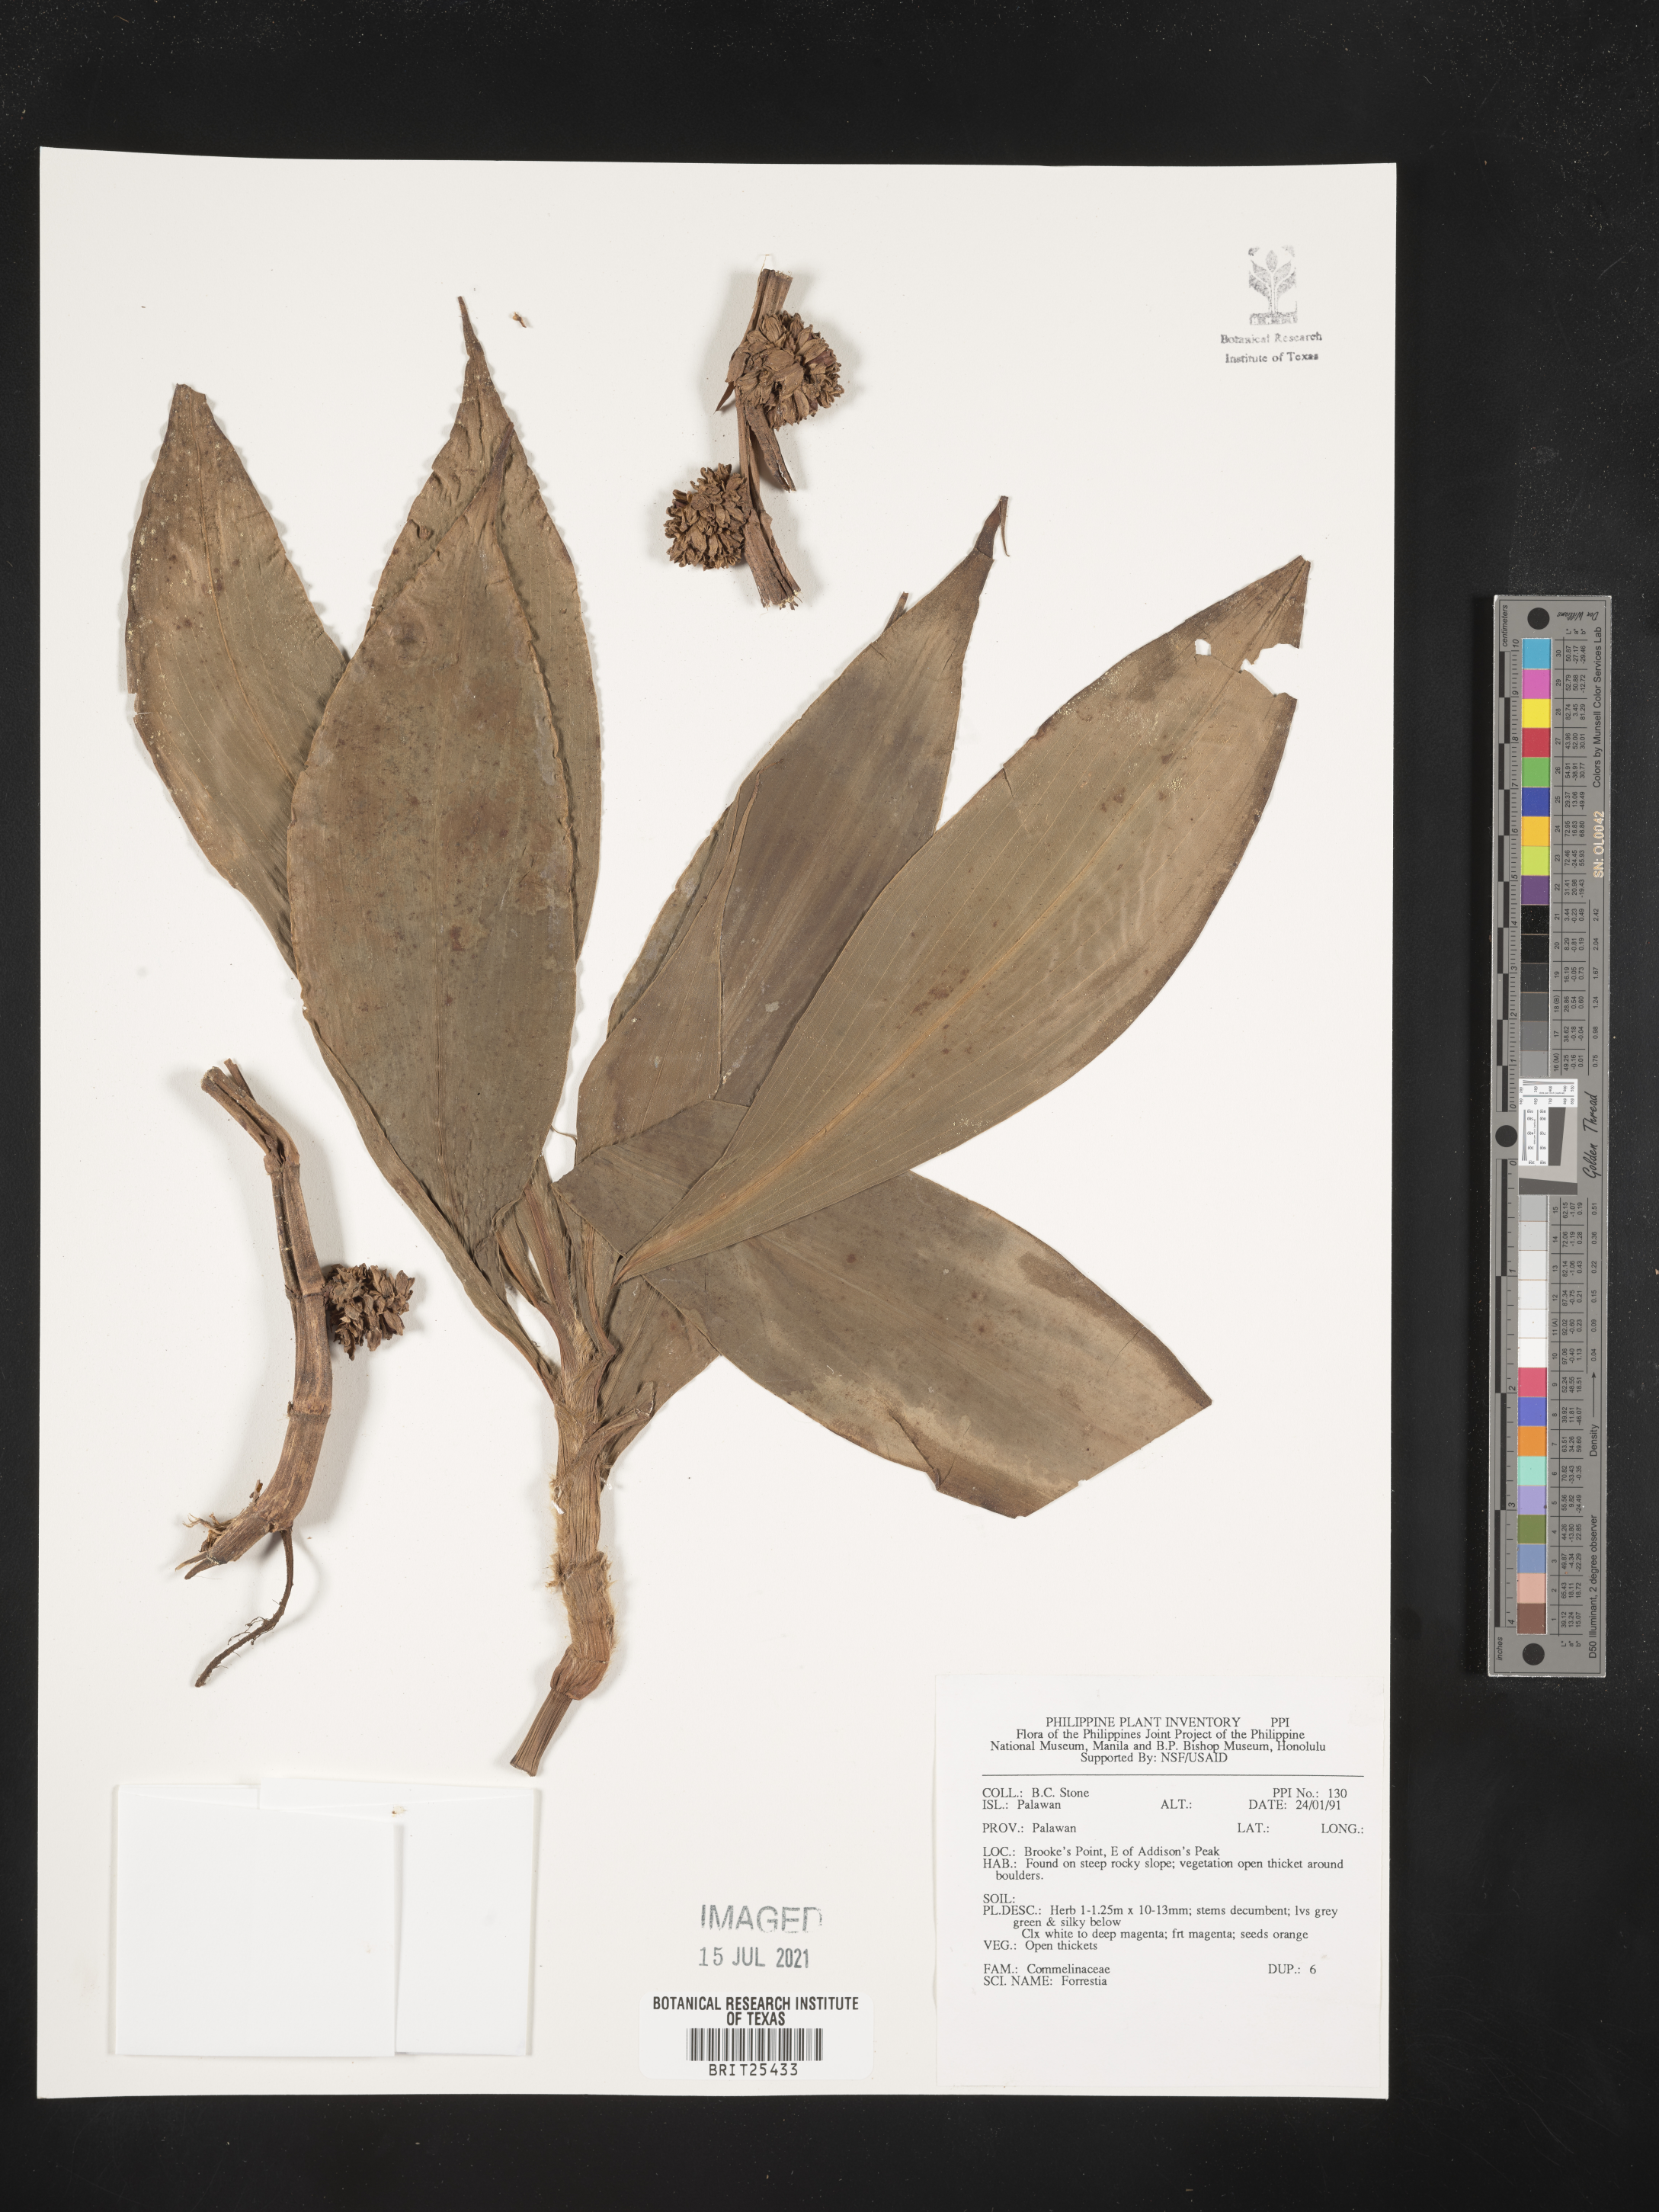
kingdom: Plantae
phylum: Tracheophyta
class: Magnoliopsida
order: Rosales
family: Rhamnaceae
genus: Ceanothus
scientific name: Ceanothus
